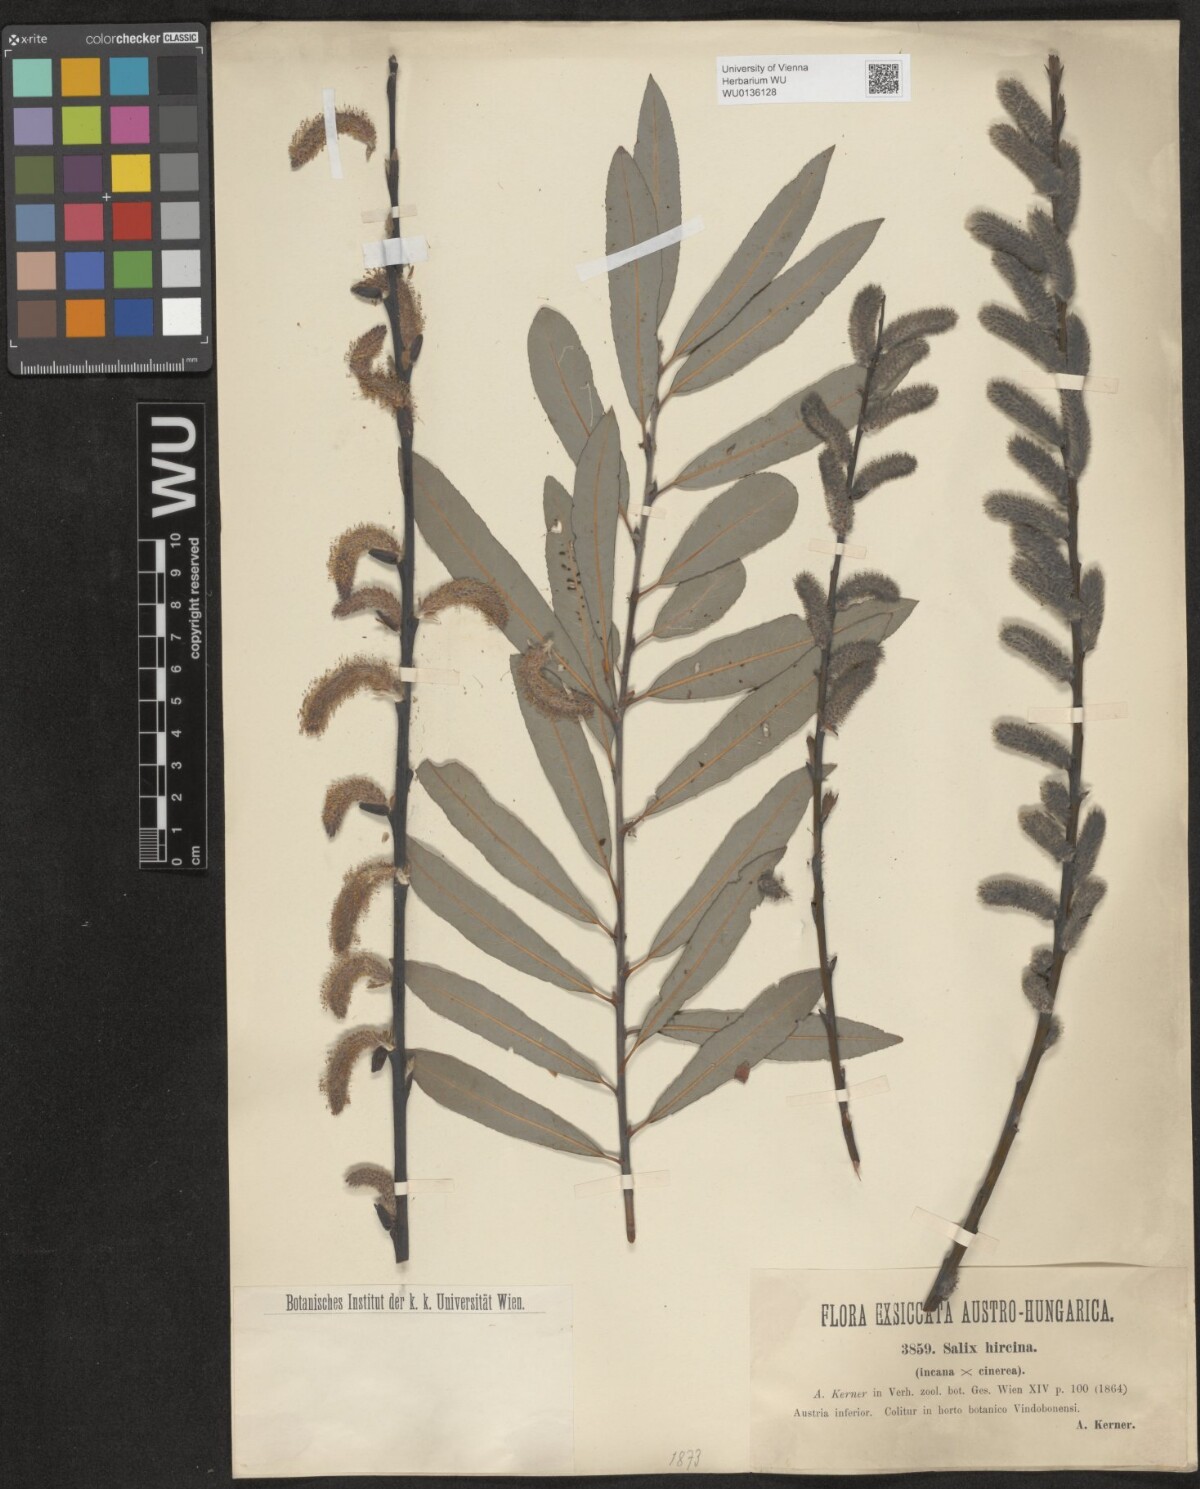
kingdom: Plantae
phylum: Tracheophyta
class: Magnoliopsida
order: Malpighiales
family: Salicaceae
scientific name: Salicaceae
